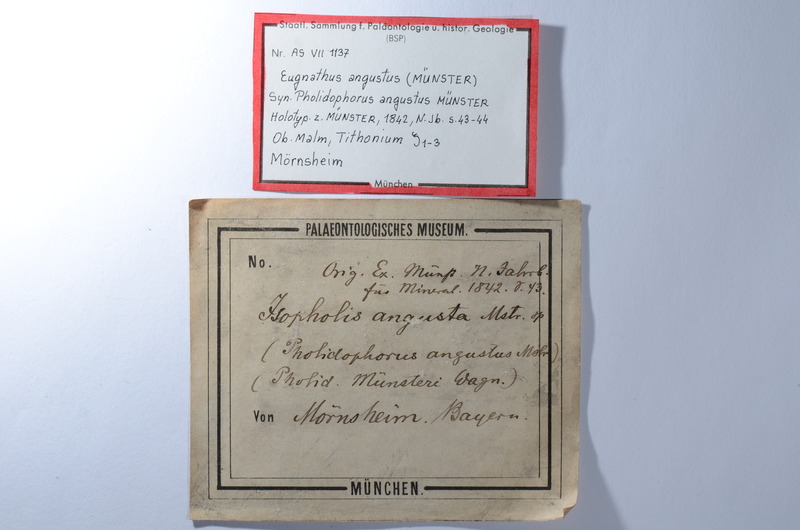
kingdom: Animalia
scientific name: Animalia
